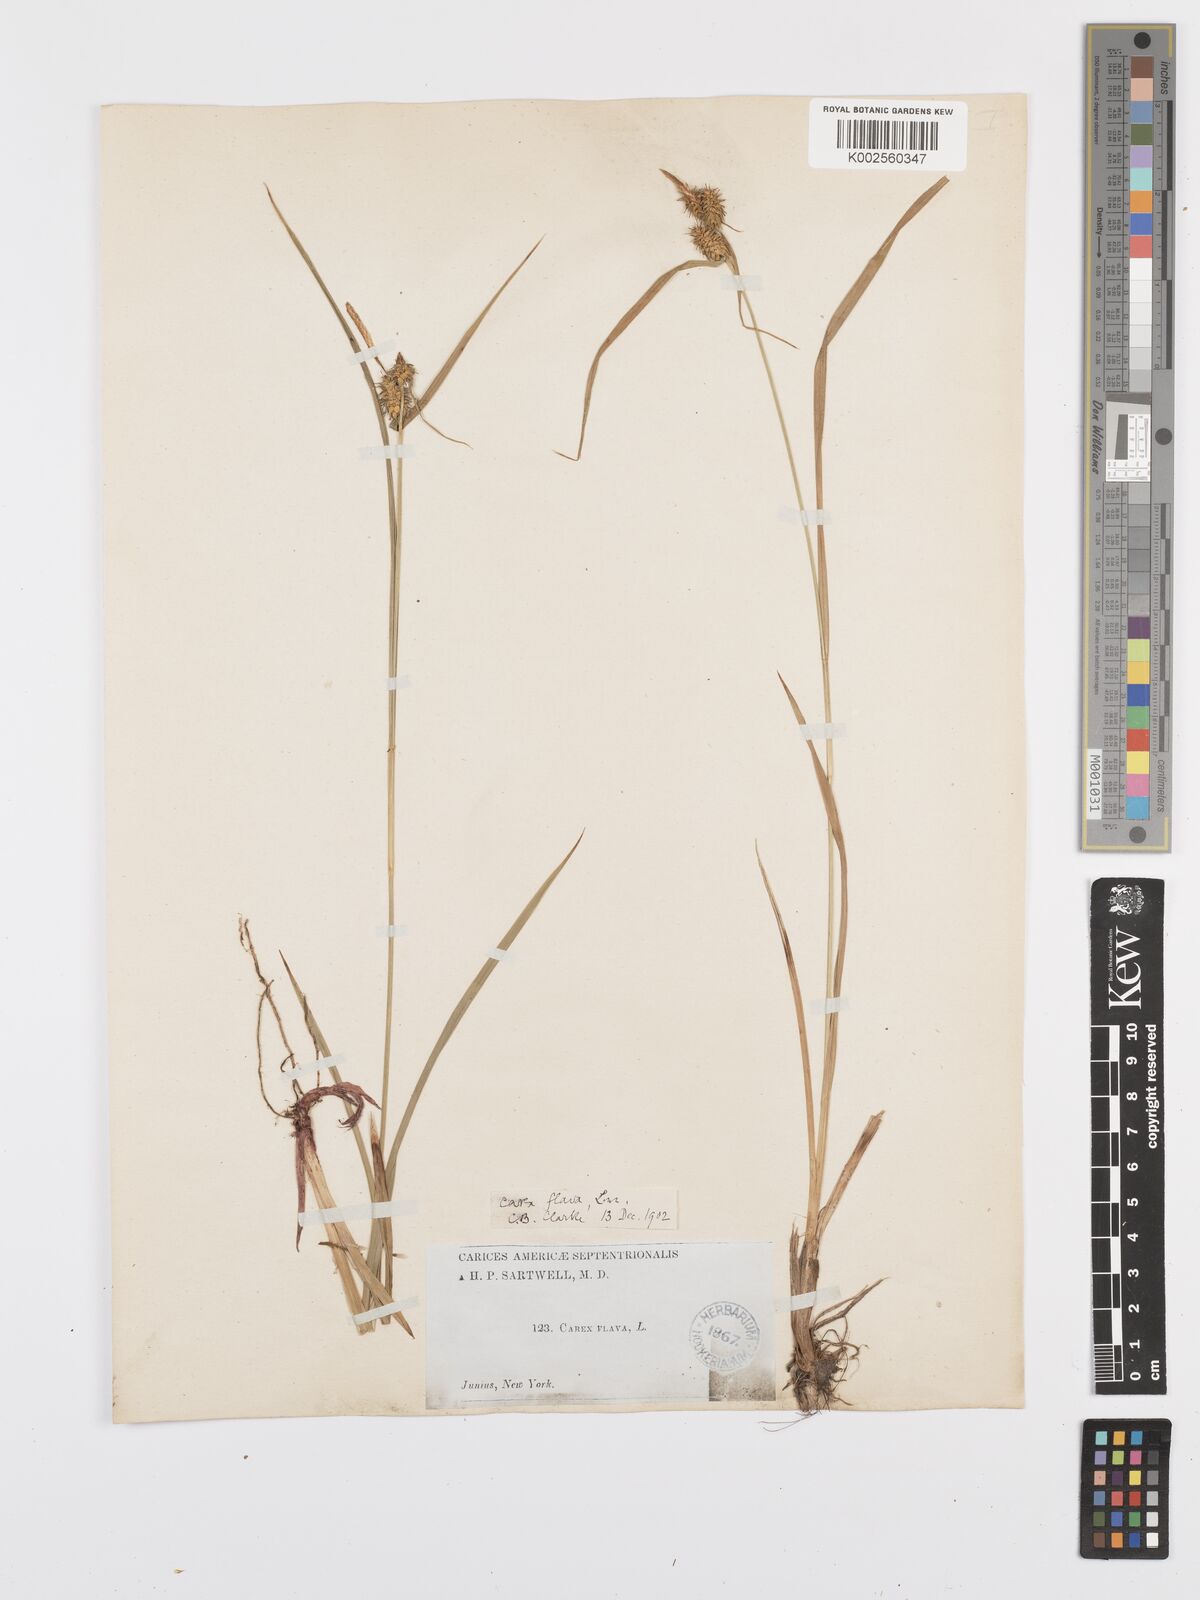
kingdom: Plantae
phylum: Tracheophyta
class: Liliopsida
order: Poales
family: Cyperaceae
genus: Carex
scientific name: Carex flava
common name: Large yellow-sedge
